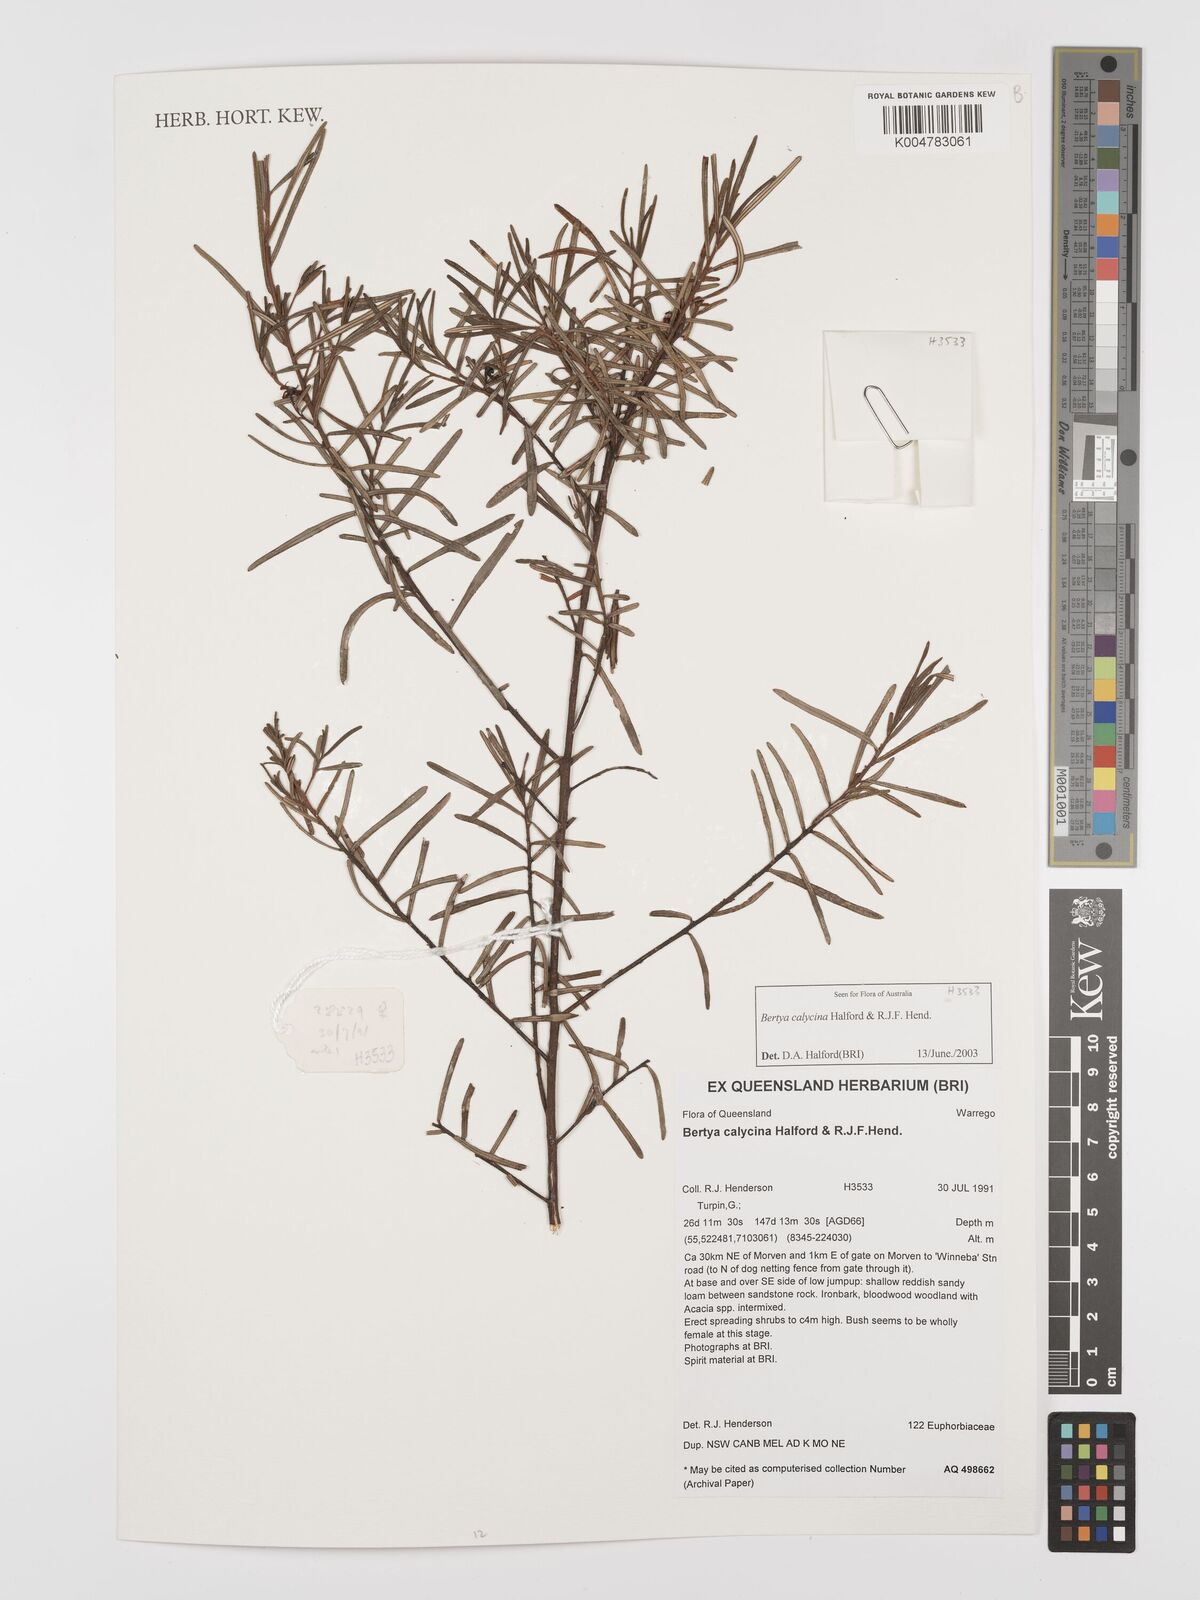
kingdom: Plantae
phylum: Tracheophyta
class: Magnoliopsida
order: Malpighiales
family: Euphorbiaceae
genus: Bertya
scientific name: Bertya calycina
